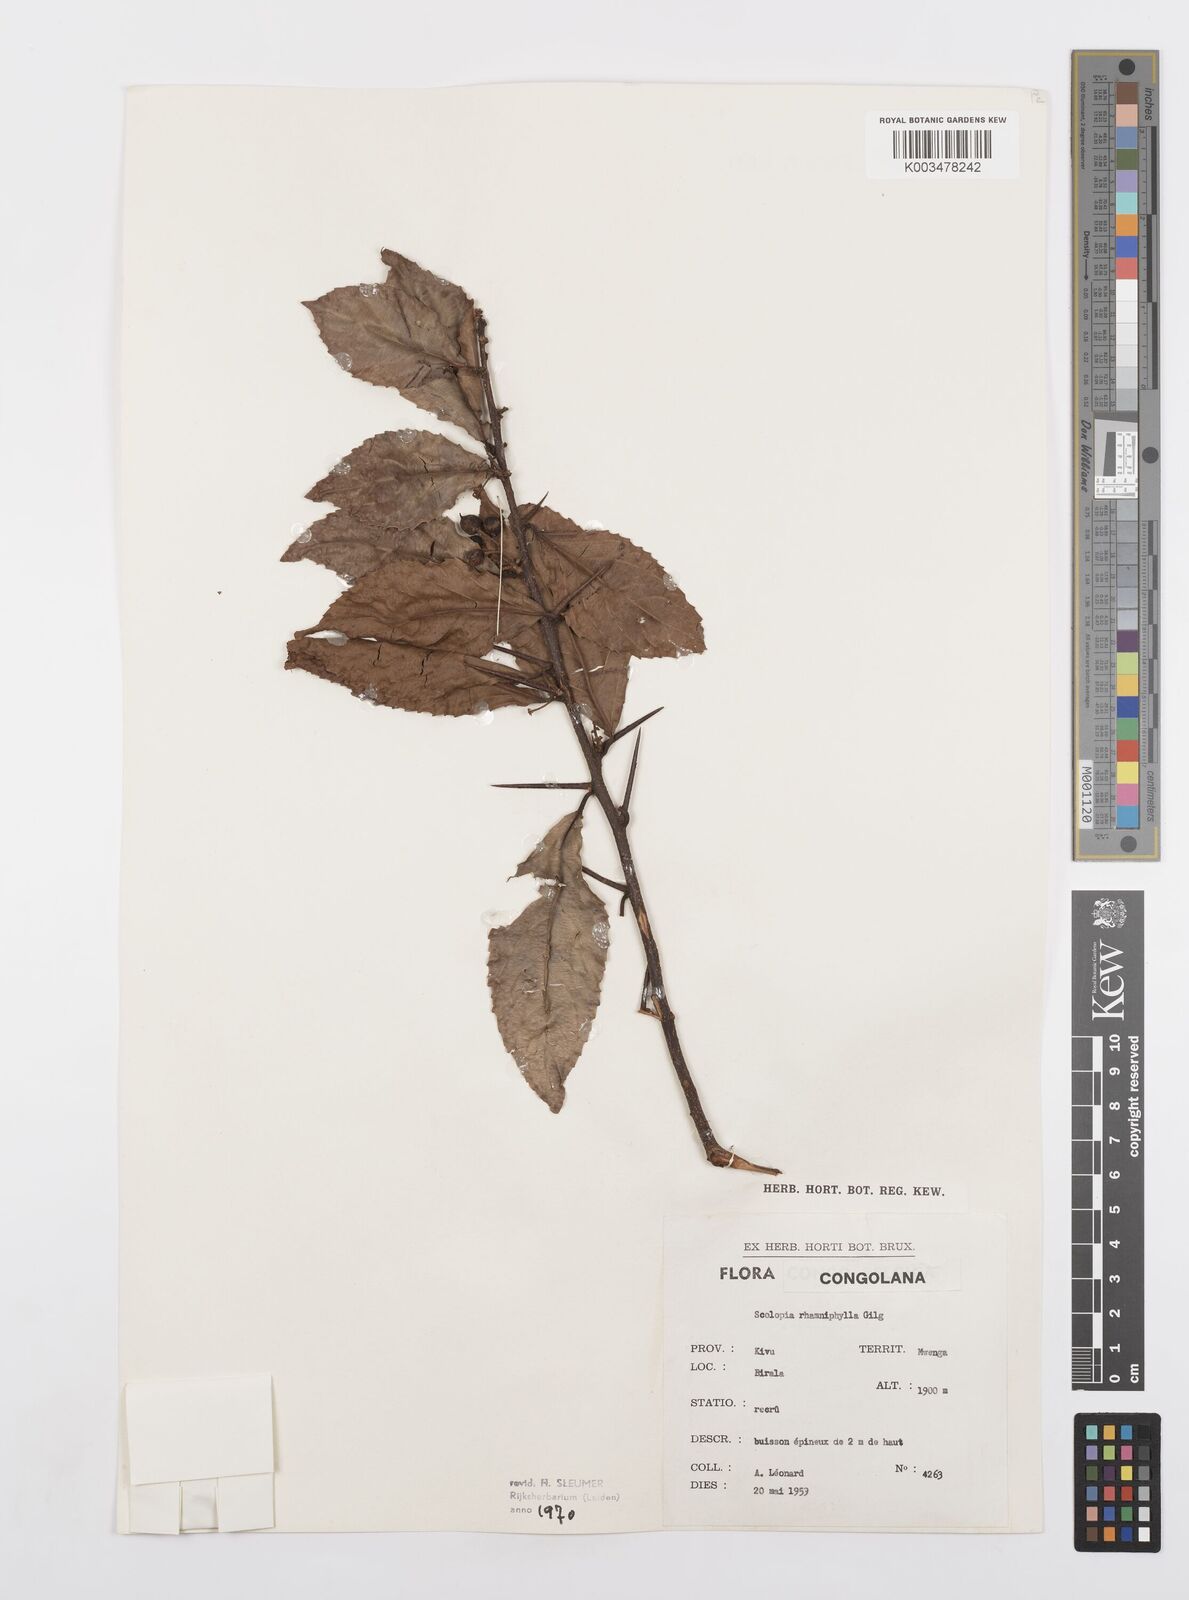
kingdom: Plantae
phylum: Tracheophyta
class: Magnoliopsida
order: Malpighiales
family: Salicaceae
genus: Scolopia
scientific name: Scolopia rhamniphylla
